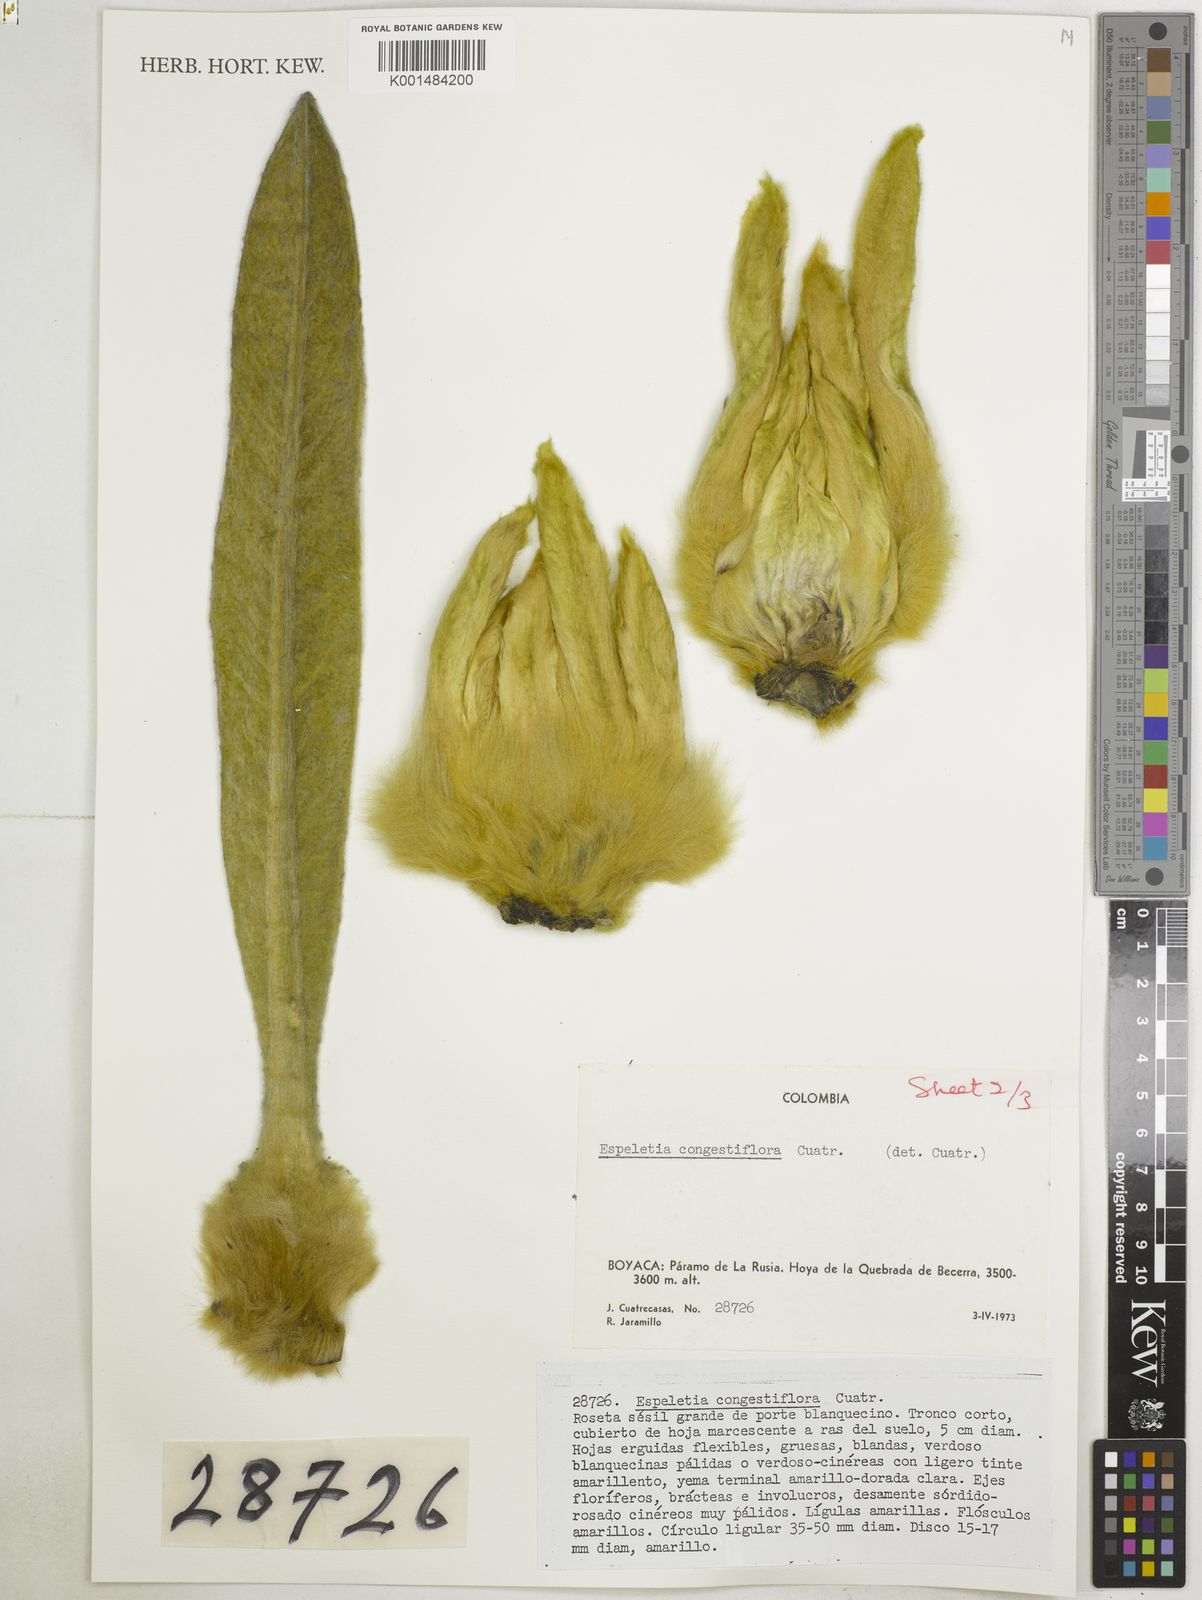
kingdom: Plantae
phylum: Tracheophyta
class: Magnoliopsida
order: Asterales
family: Asteraceae
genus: Espeletia
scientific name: Espeletia congestiflora
